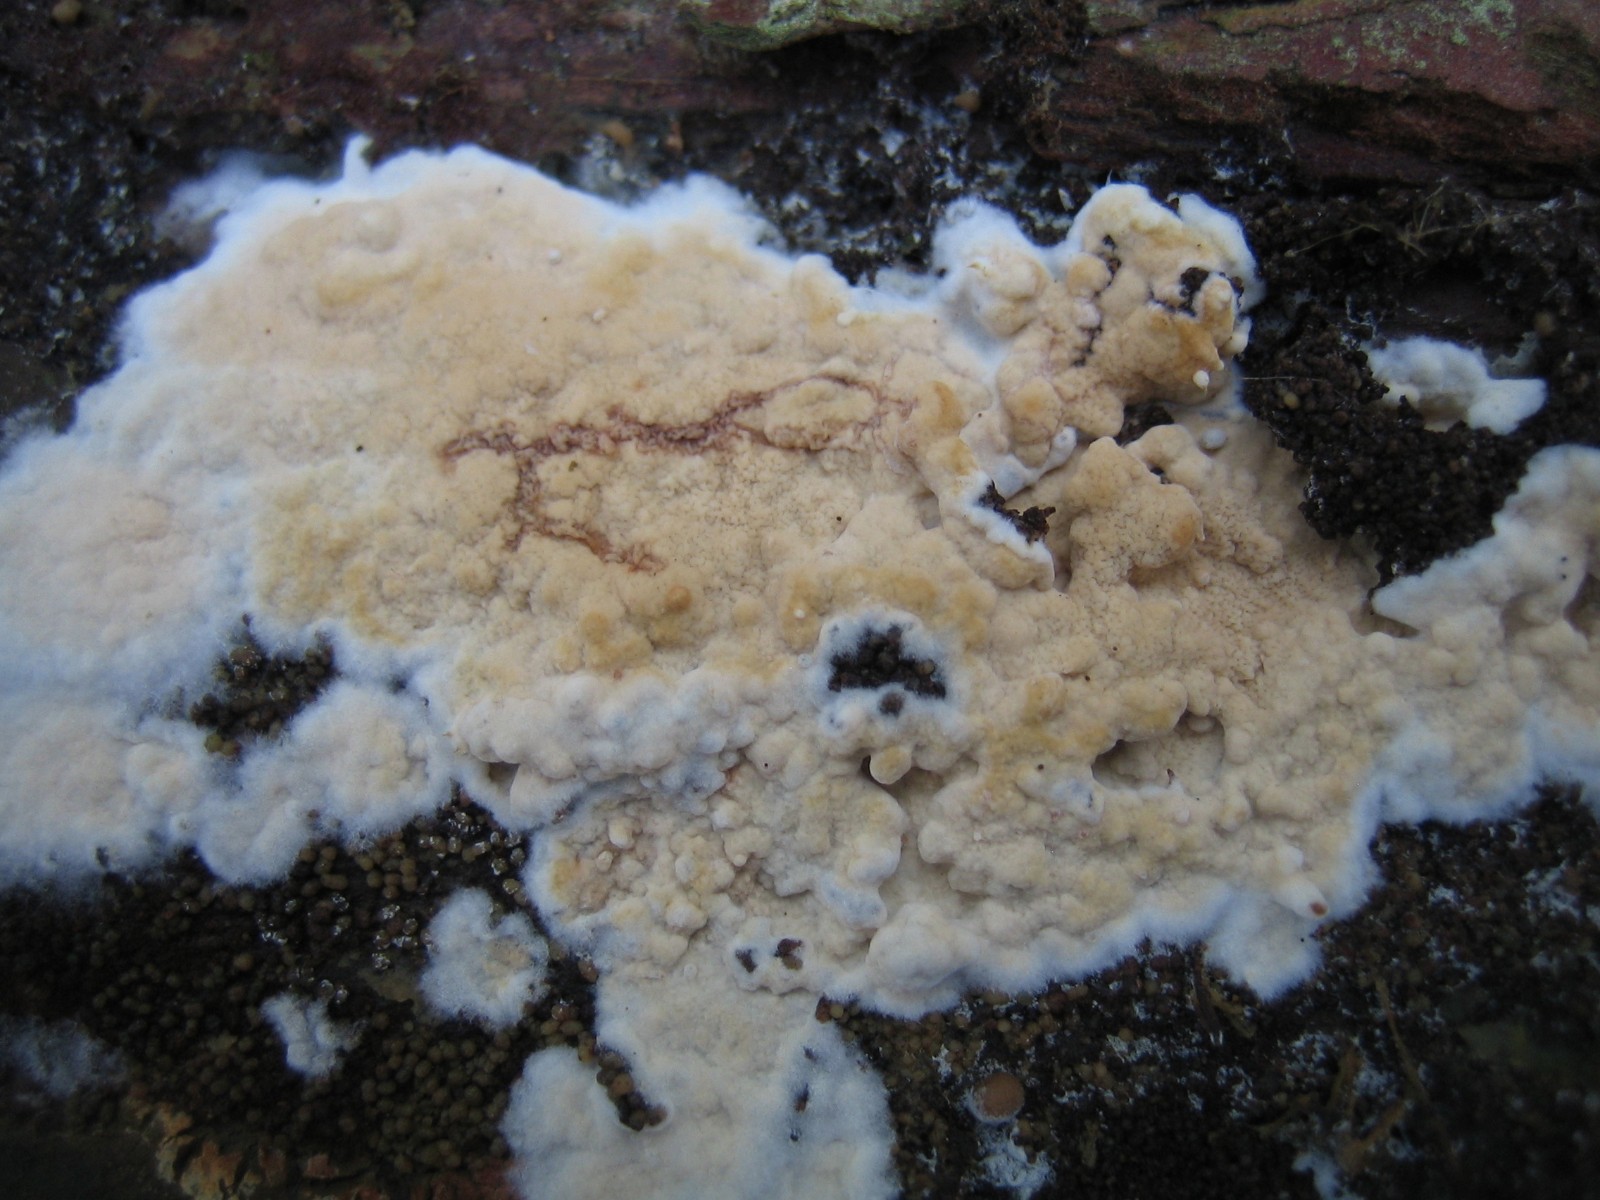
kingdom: Fungi
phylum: Basidiomycota
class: Agaricomycetes
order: Corticiales
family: Corticiaceae
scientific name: Corticiaceae
